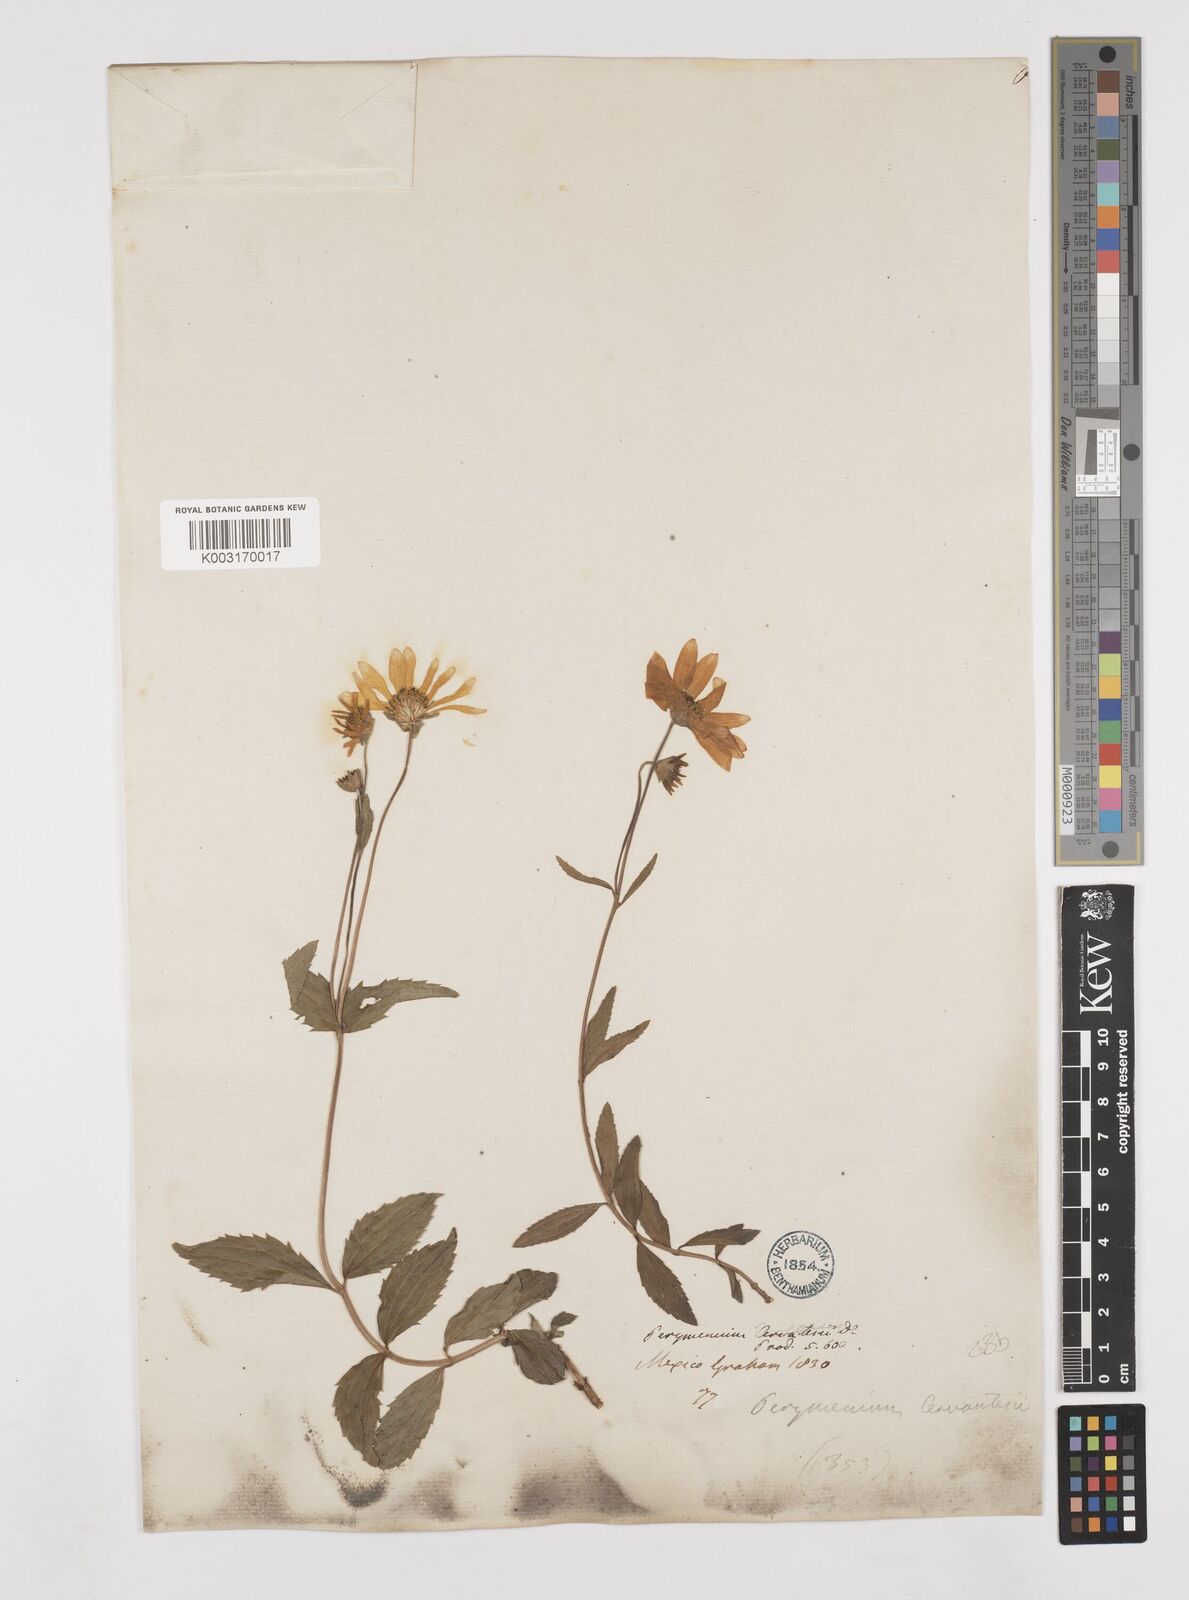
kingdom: Plantae
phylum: Tracheophyta
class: Magnoliopsida
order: Asterales
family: Asteraceae
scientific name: Asteraceae
